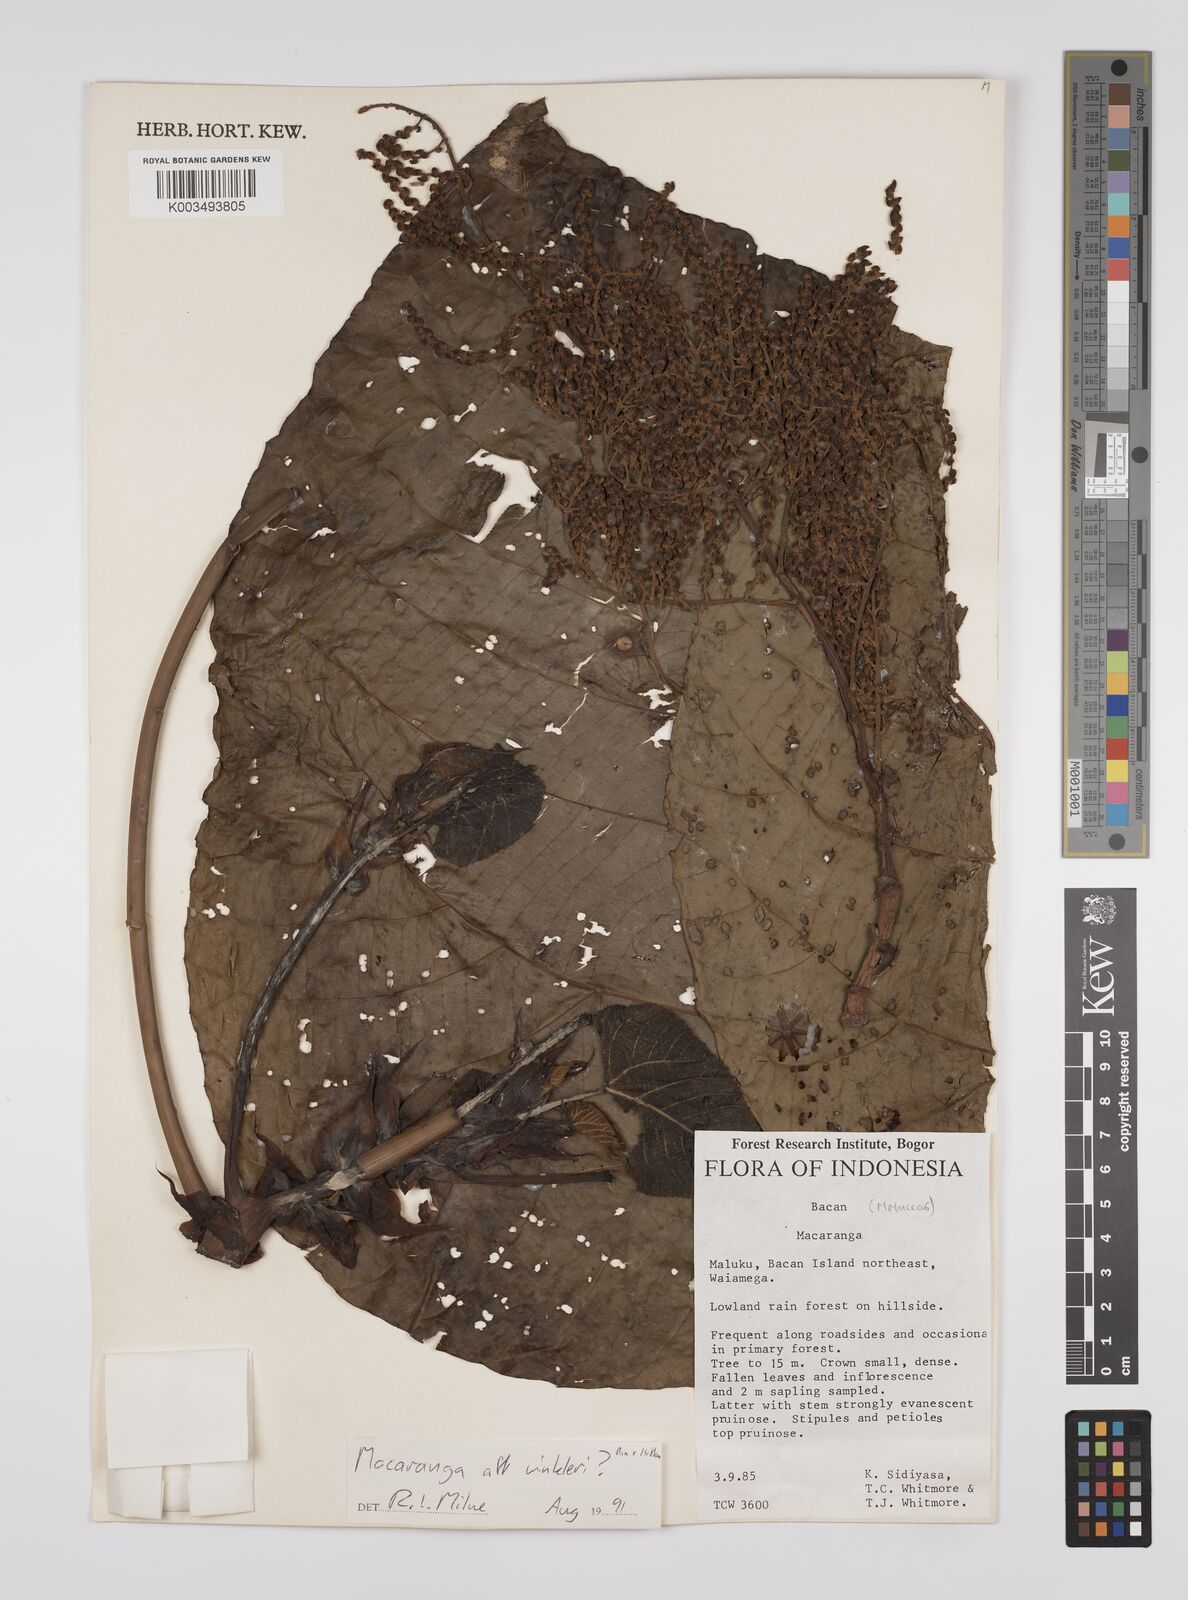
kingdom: Plantae
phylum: Tracheophyta
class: Magnoliopsida
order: Malpighiales
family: Euphorbiaceae
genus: Macaranga
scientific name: Macaranga winkleri
